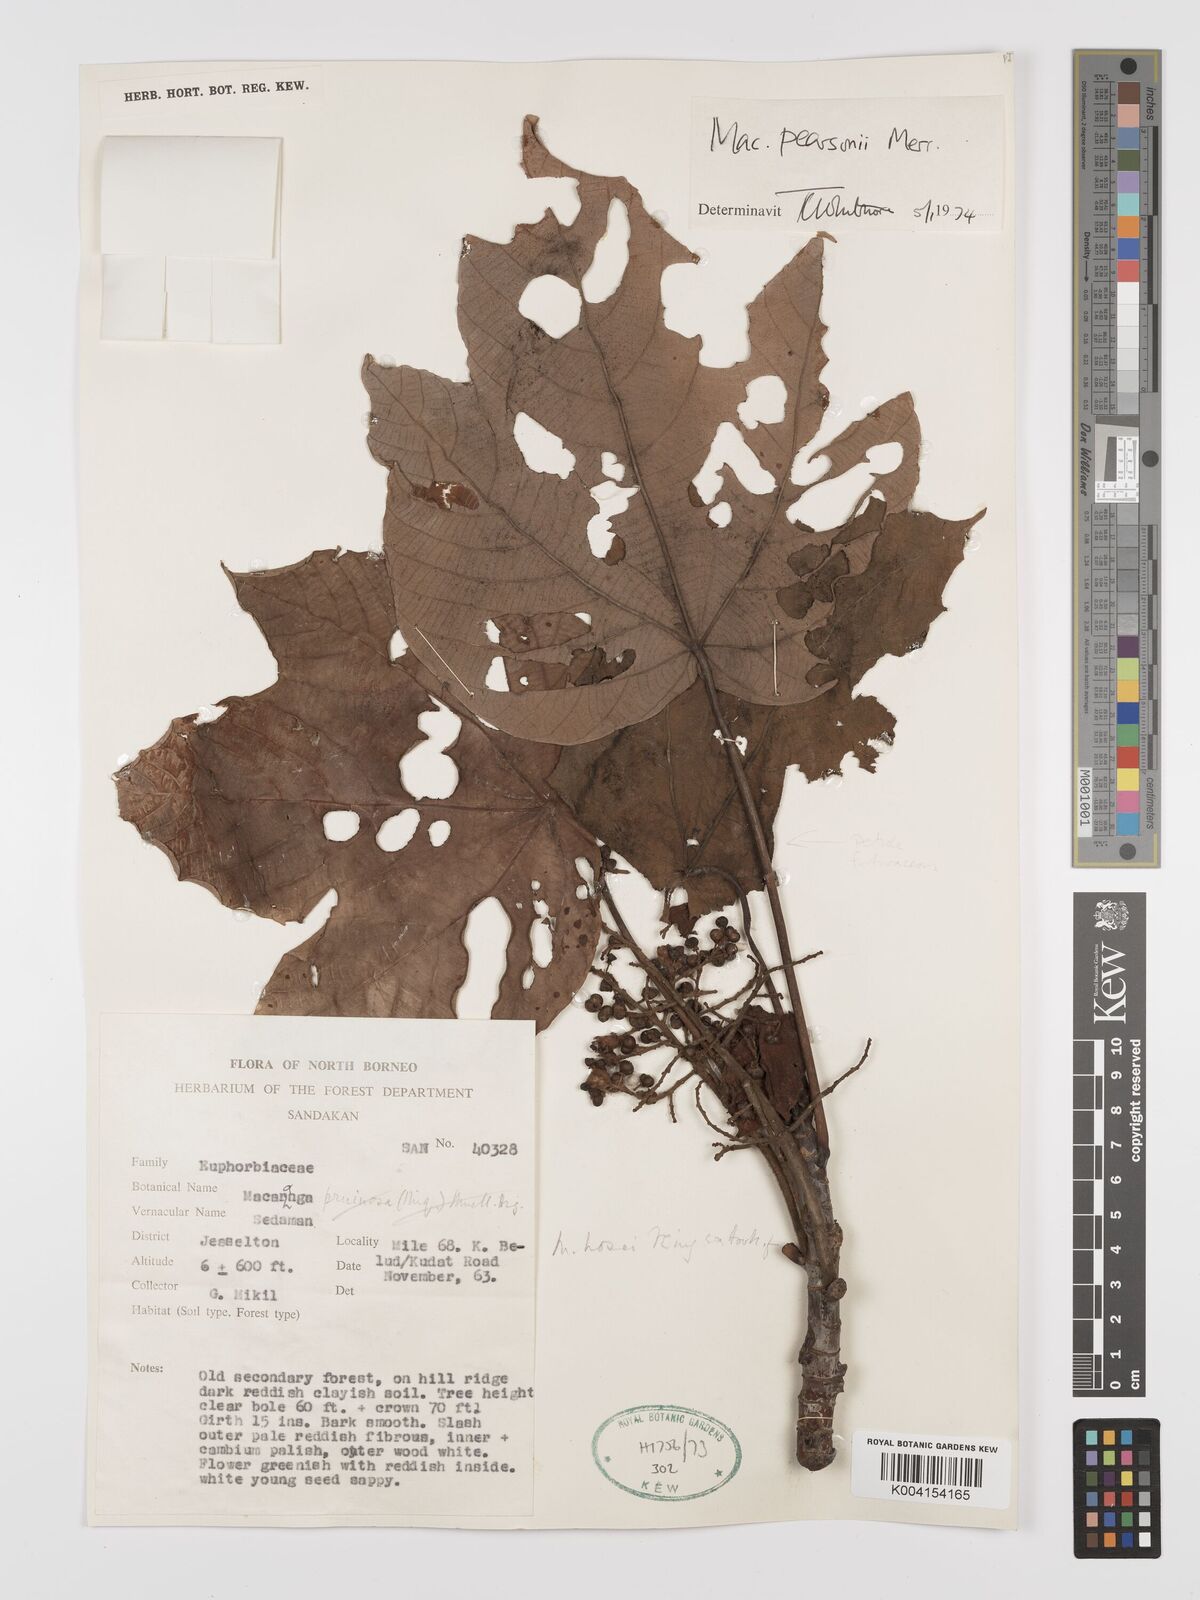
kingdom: Plantae
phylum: Tracheophyta
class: Magnoliopsida
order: Malpighiales
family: Euphorbiaceae
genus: Macaranga
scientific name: Macaranga pearsonii
